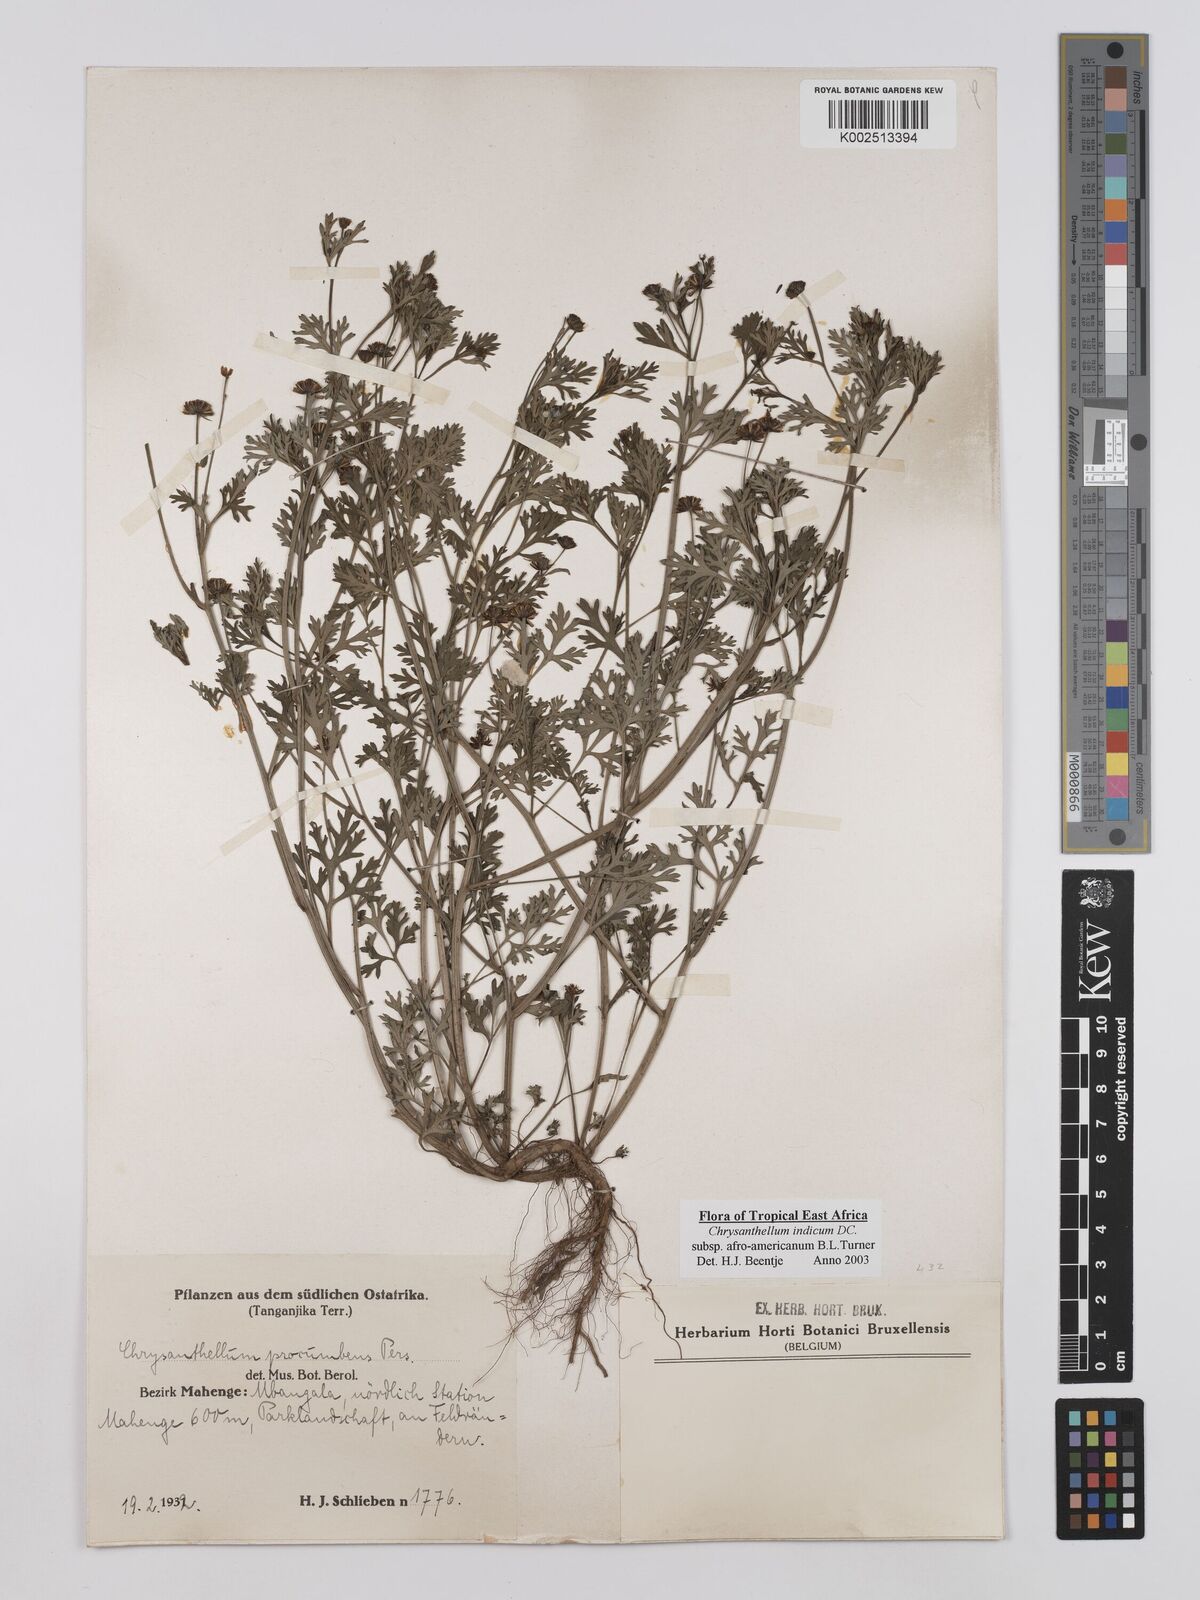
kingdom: Plantae
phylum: Tracheophyta
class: Magnoliopsida
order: Asterales
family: Asteraceae
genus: Chrysanthellum
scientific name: Chrysanthellum indicum
